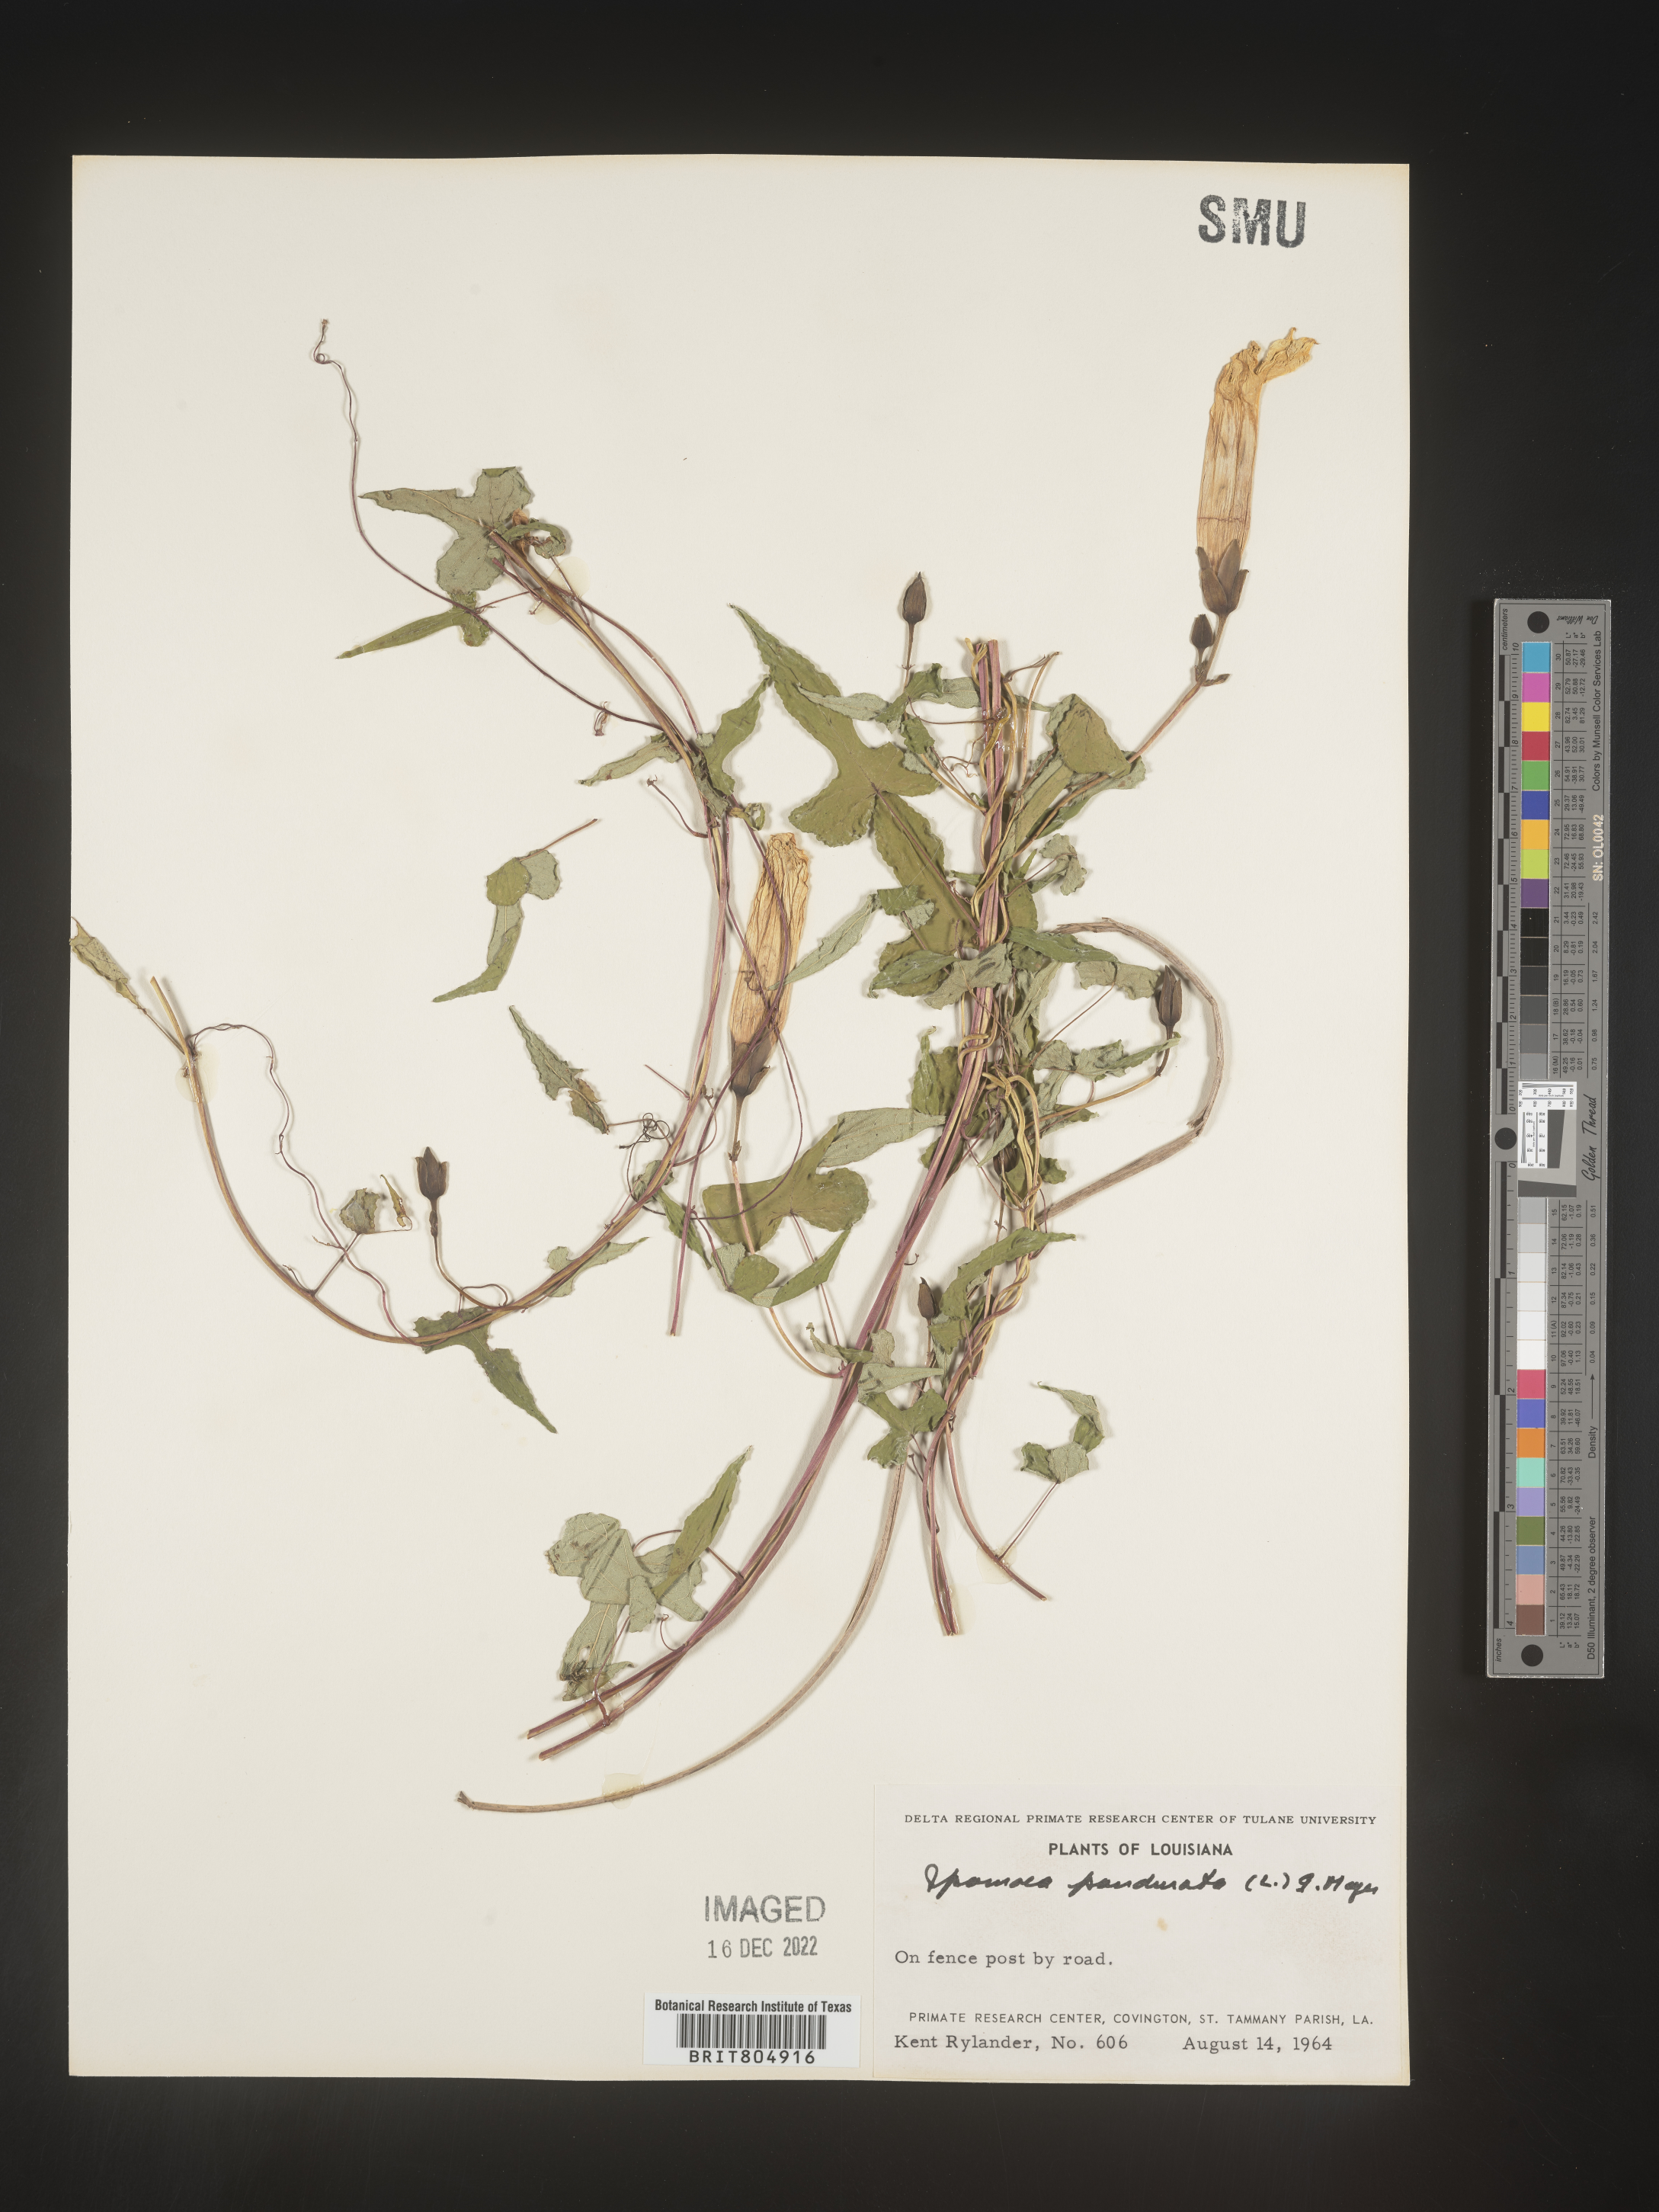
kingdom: Plantae
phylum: Tracheophyta
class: Magnoliopsida
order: Solanales
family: Convolvulaceae
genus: Ipomoea
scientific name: Ipomoea pandurata
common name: Man-of-the-earth
